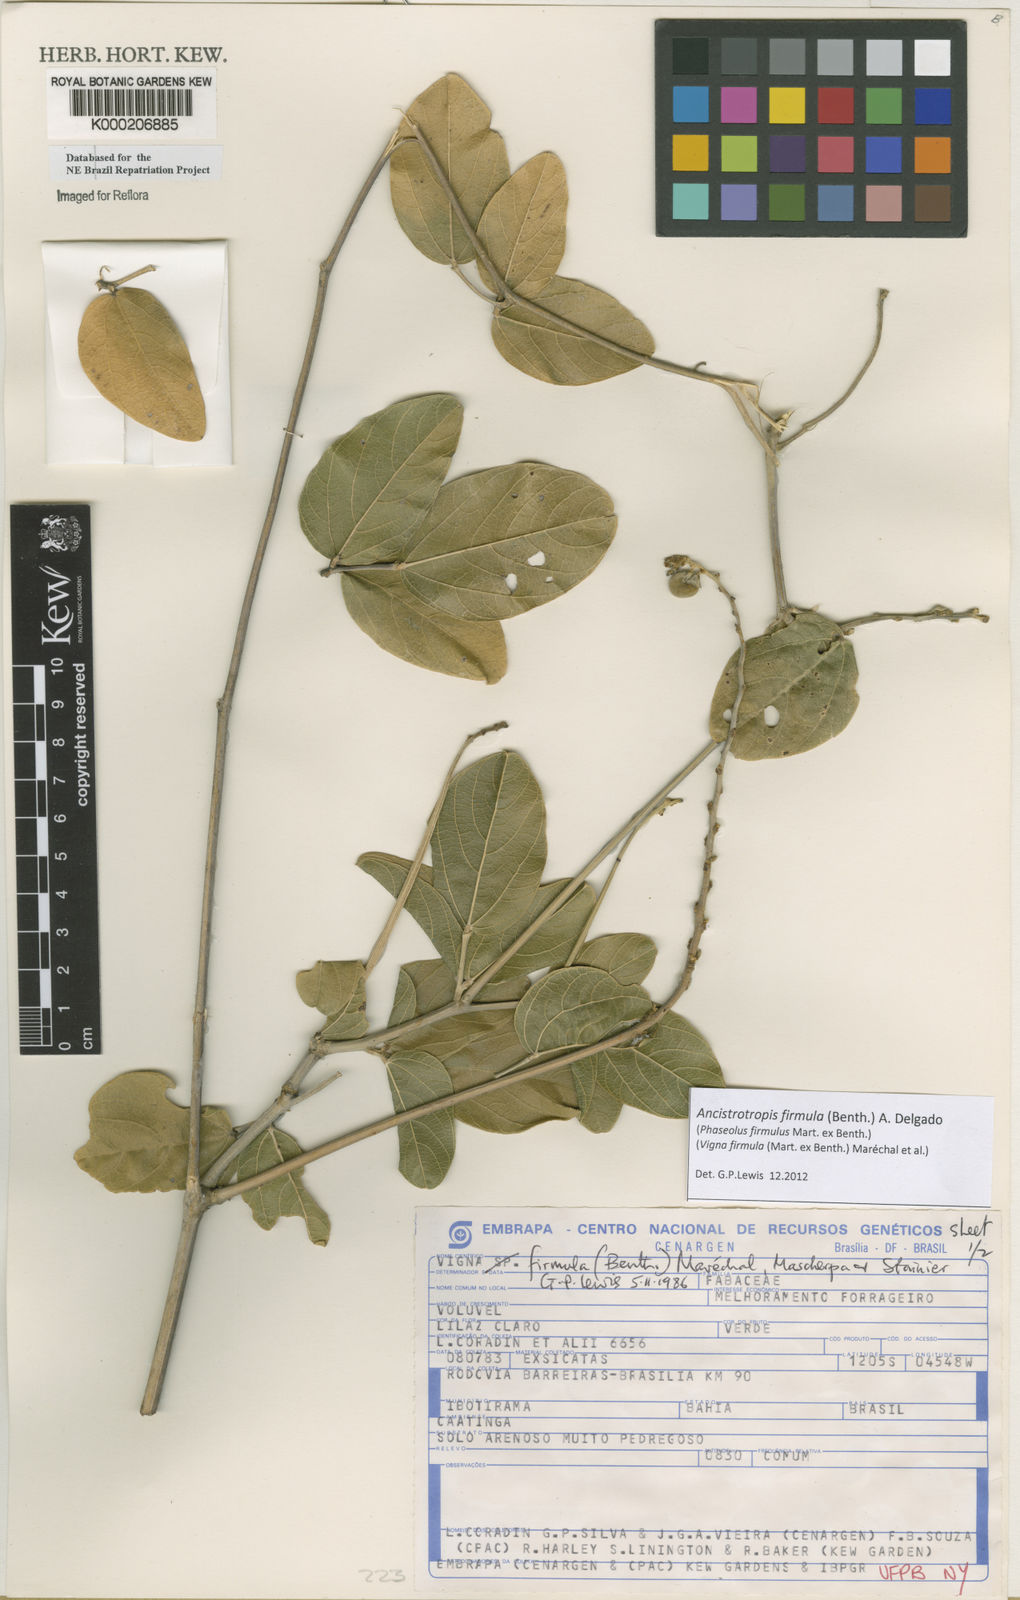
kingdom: Plantae
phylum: Tracheophyta
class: Magnoliopsida
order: Fabales
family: Fabaceae
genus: Vigna
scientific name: Vigna
